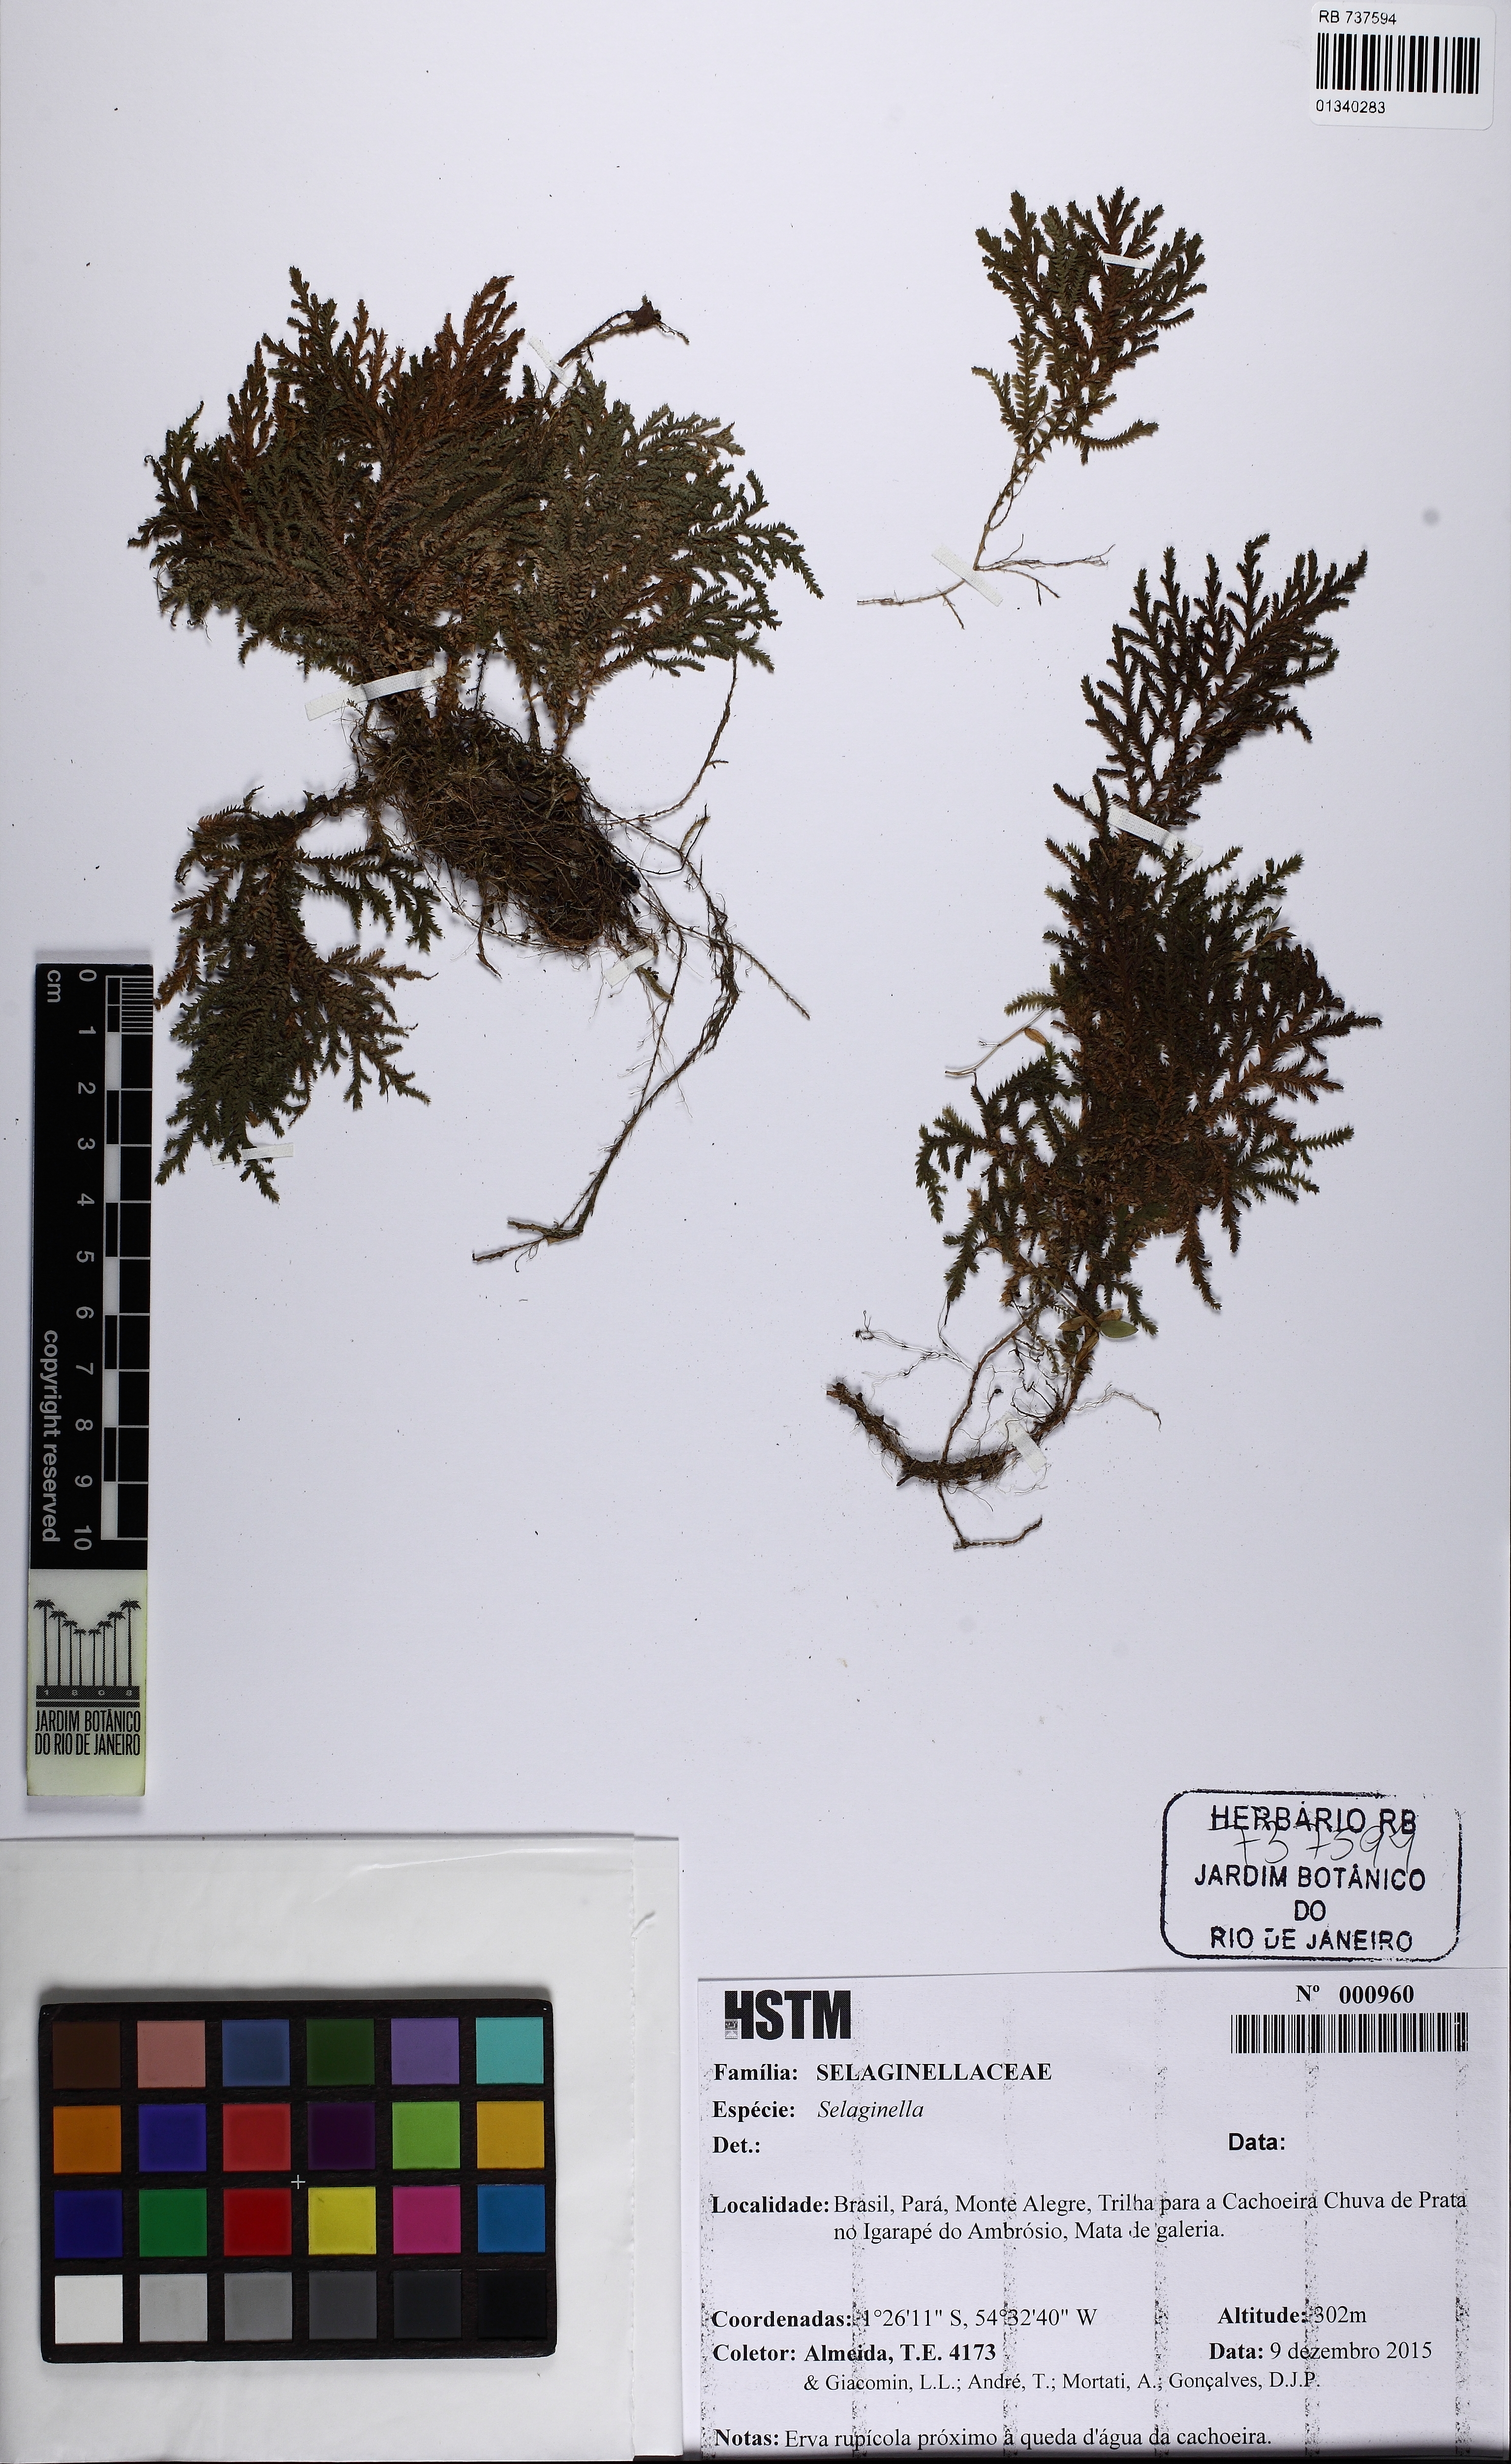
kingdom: Plantae
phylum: Tracheophyta
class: Lycopodiopsida
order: Selaginellales
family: Selaginellaceae
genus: Selaginella
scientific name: Selaginella
